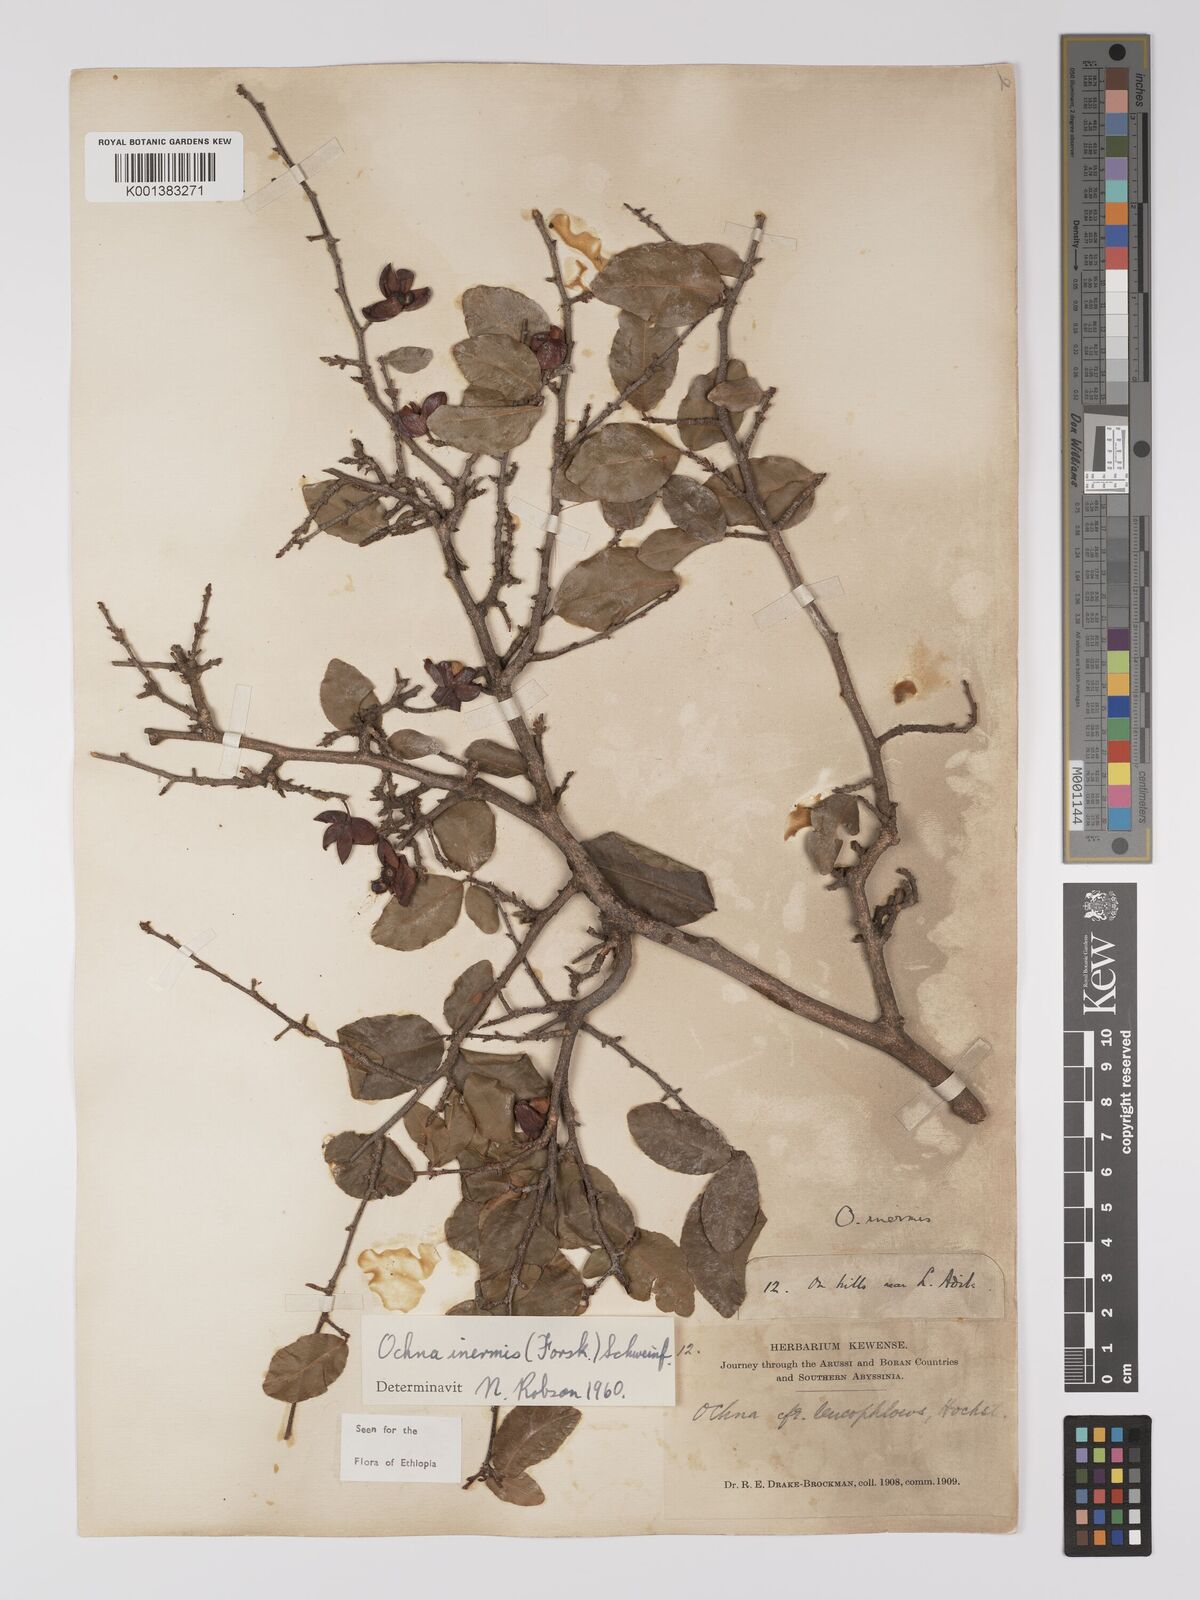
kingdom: Plantae
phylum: Tracheophyta
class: Magnoliopsida
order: Malpighiales
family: Ochnaceae
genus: Ochna
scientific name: Ochna inermis
